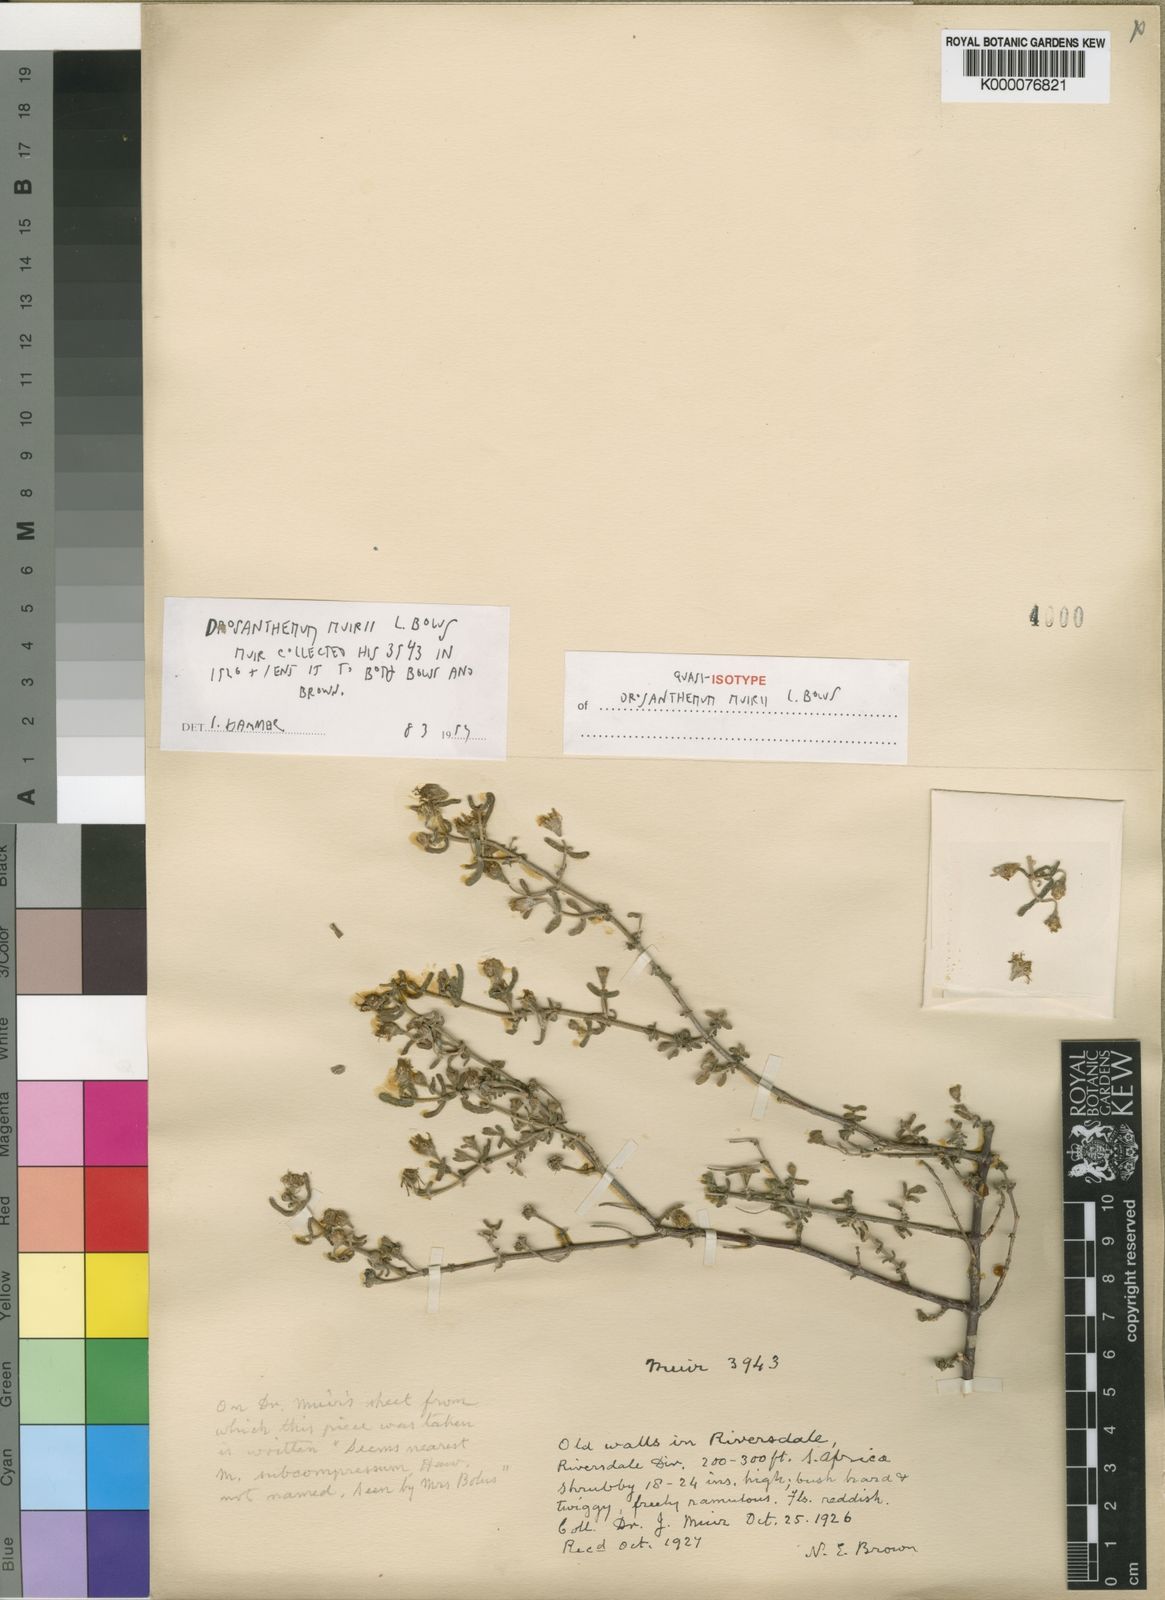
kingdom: Plantae
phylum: Tracheophyta
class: Magnoliopsida
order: Caryophyllales
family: Aizoaceae
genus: Drosanthemum
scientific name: Drosanthemum muirii
